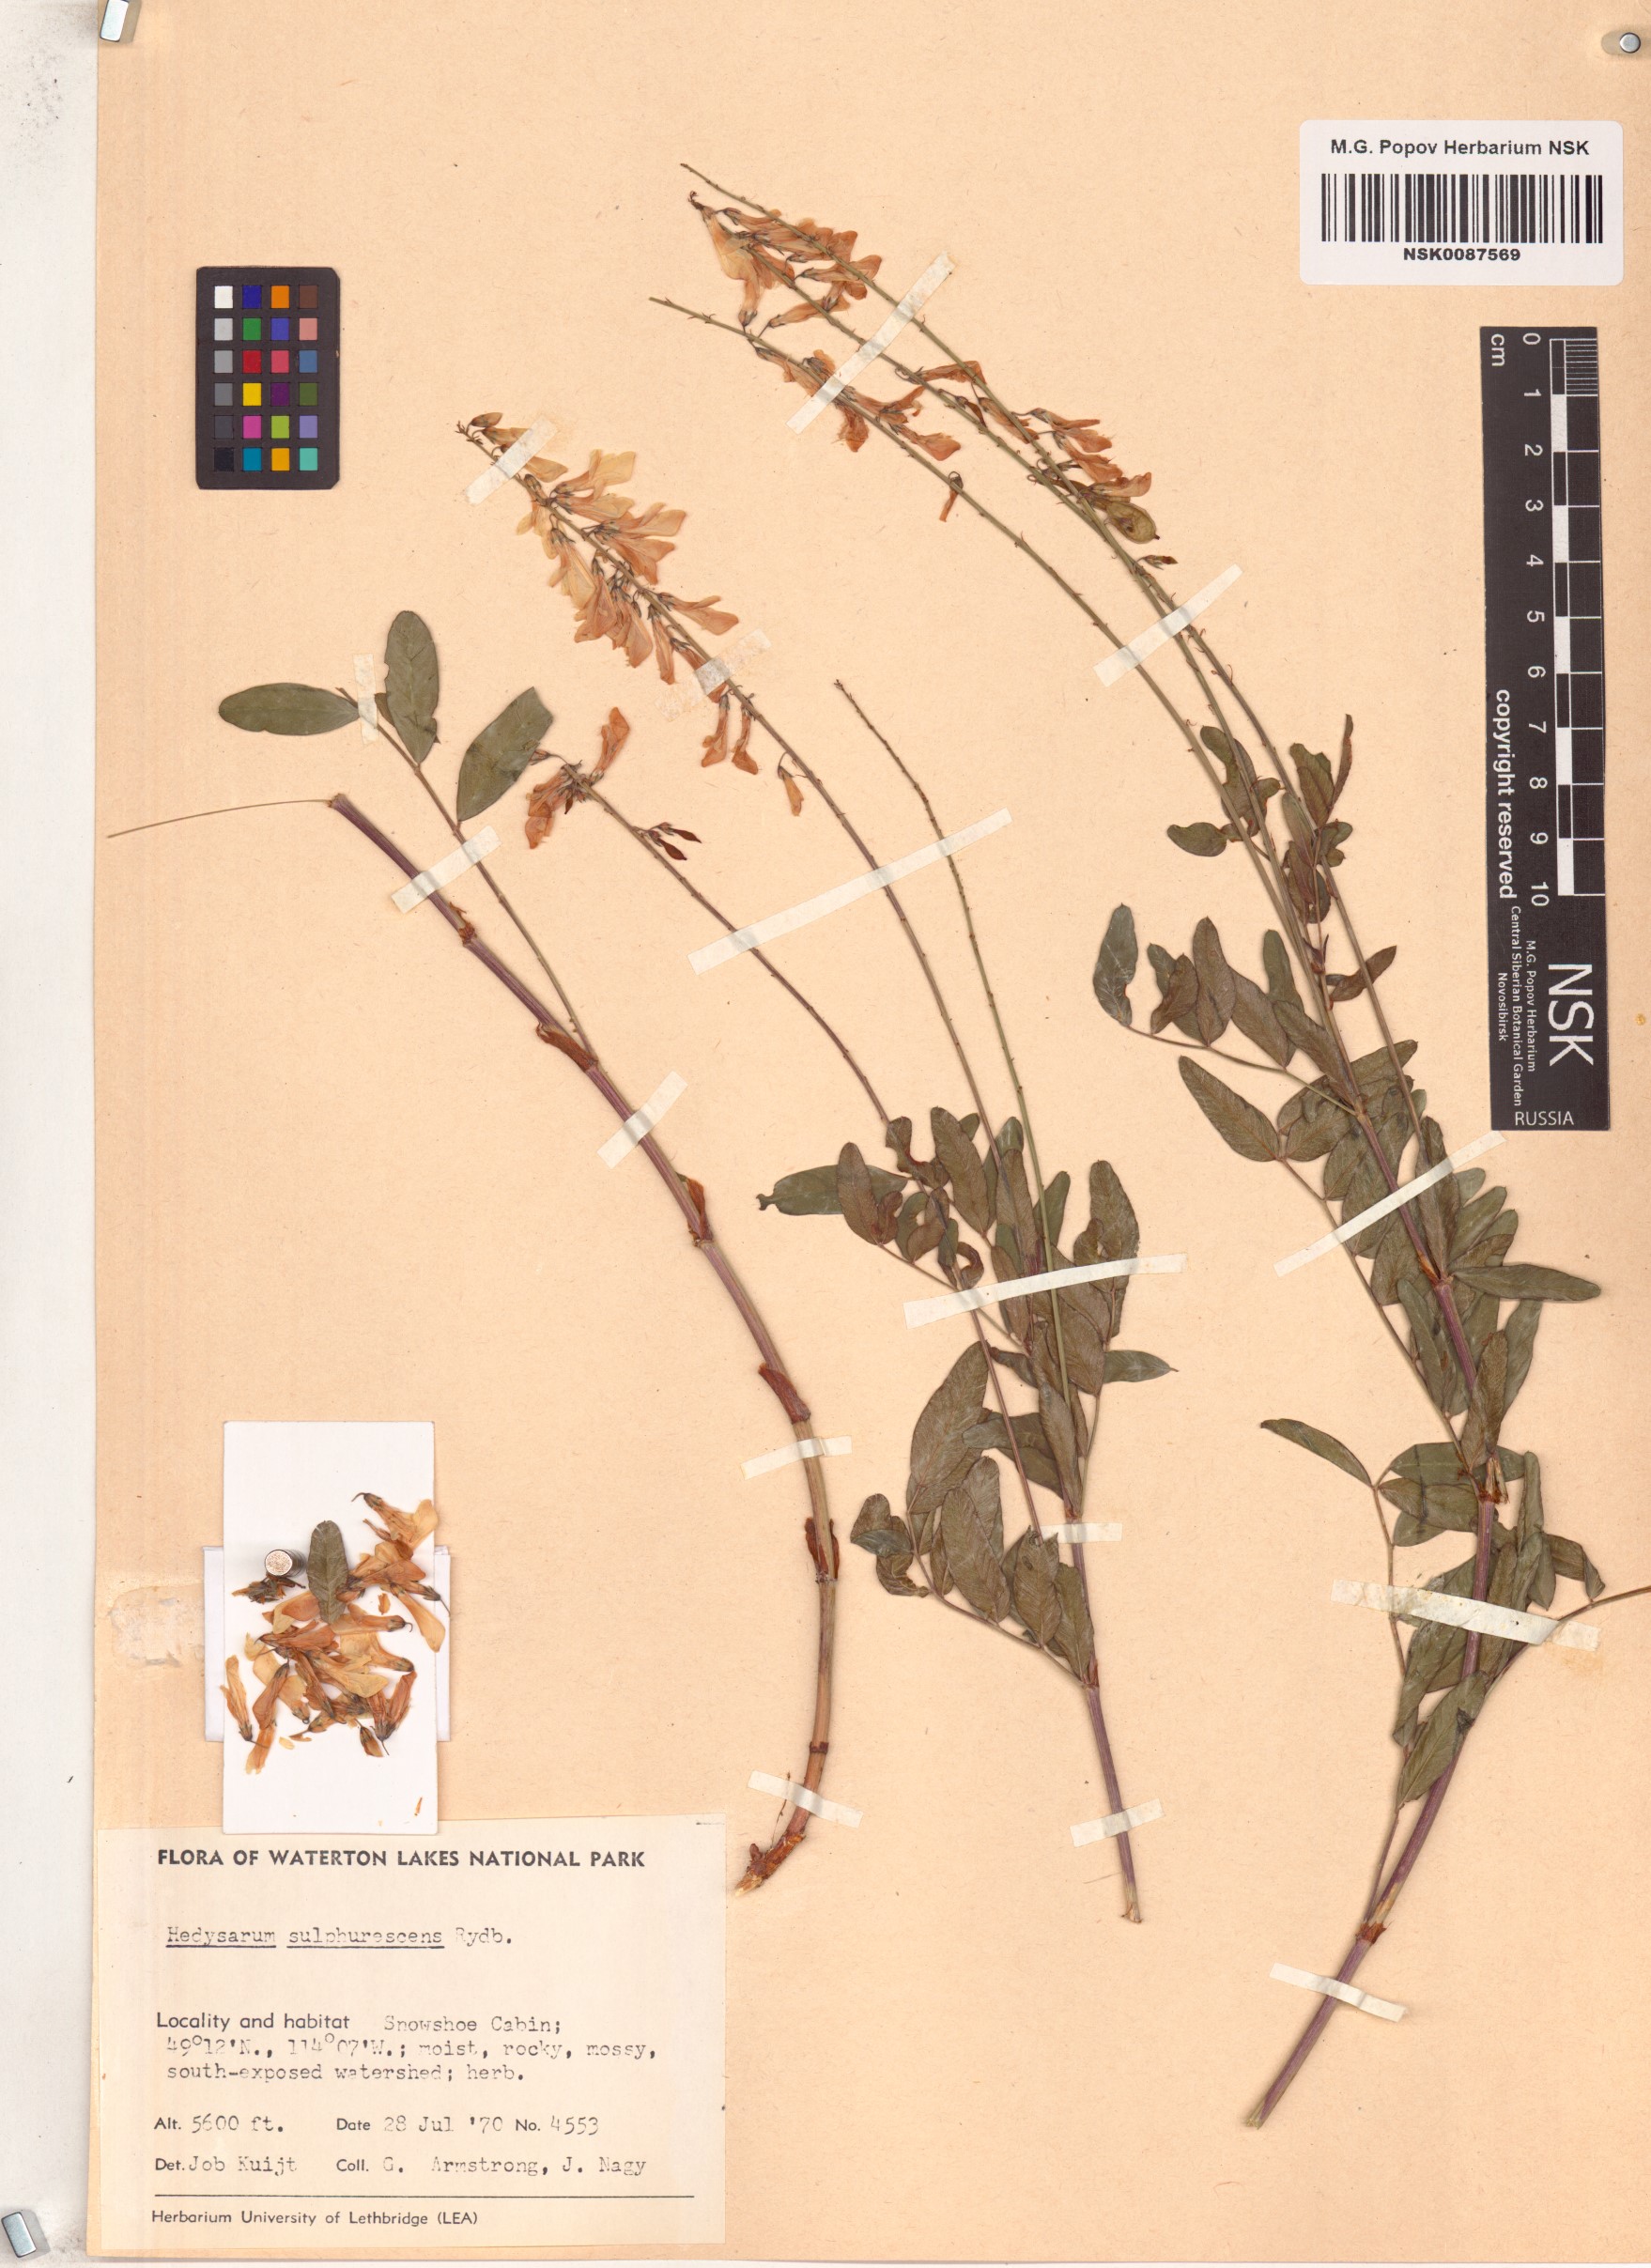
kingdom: Plantae
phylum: Tracheophyta
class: Magnoliopsida
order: Fabales
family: Fabaceae
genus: Hedysarum
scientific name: Hedysarum sulphurescens
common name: Sulphur hedysarum
